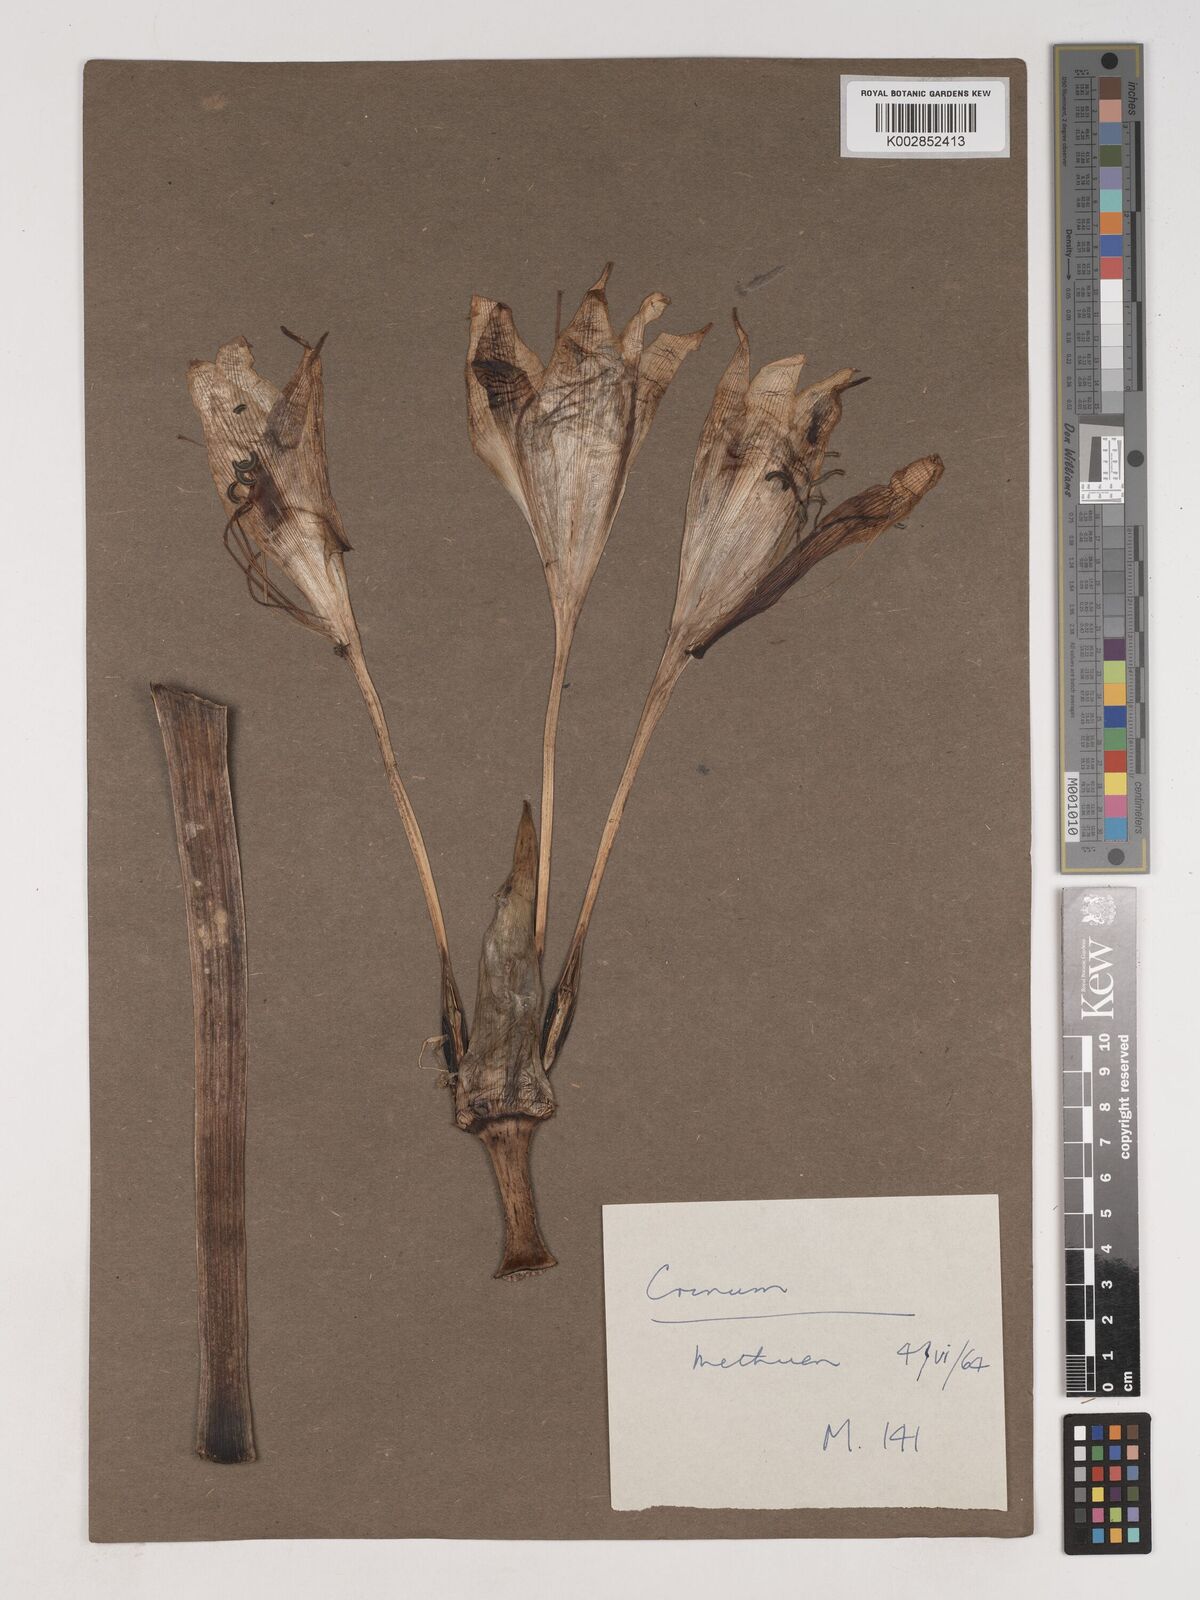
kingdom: Plantae
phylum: Tracheophyta
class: Liliopsida
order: Asparagales
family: Amaryllidaceae
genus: Crinum
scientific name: Crinum
